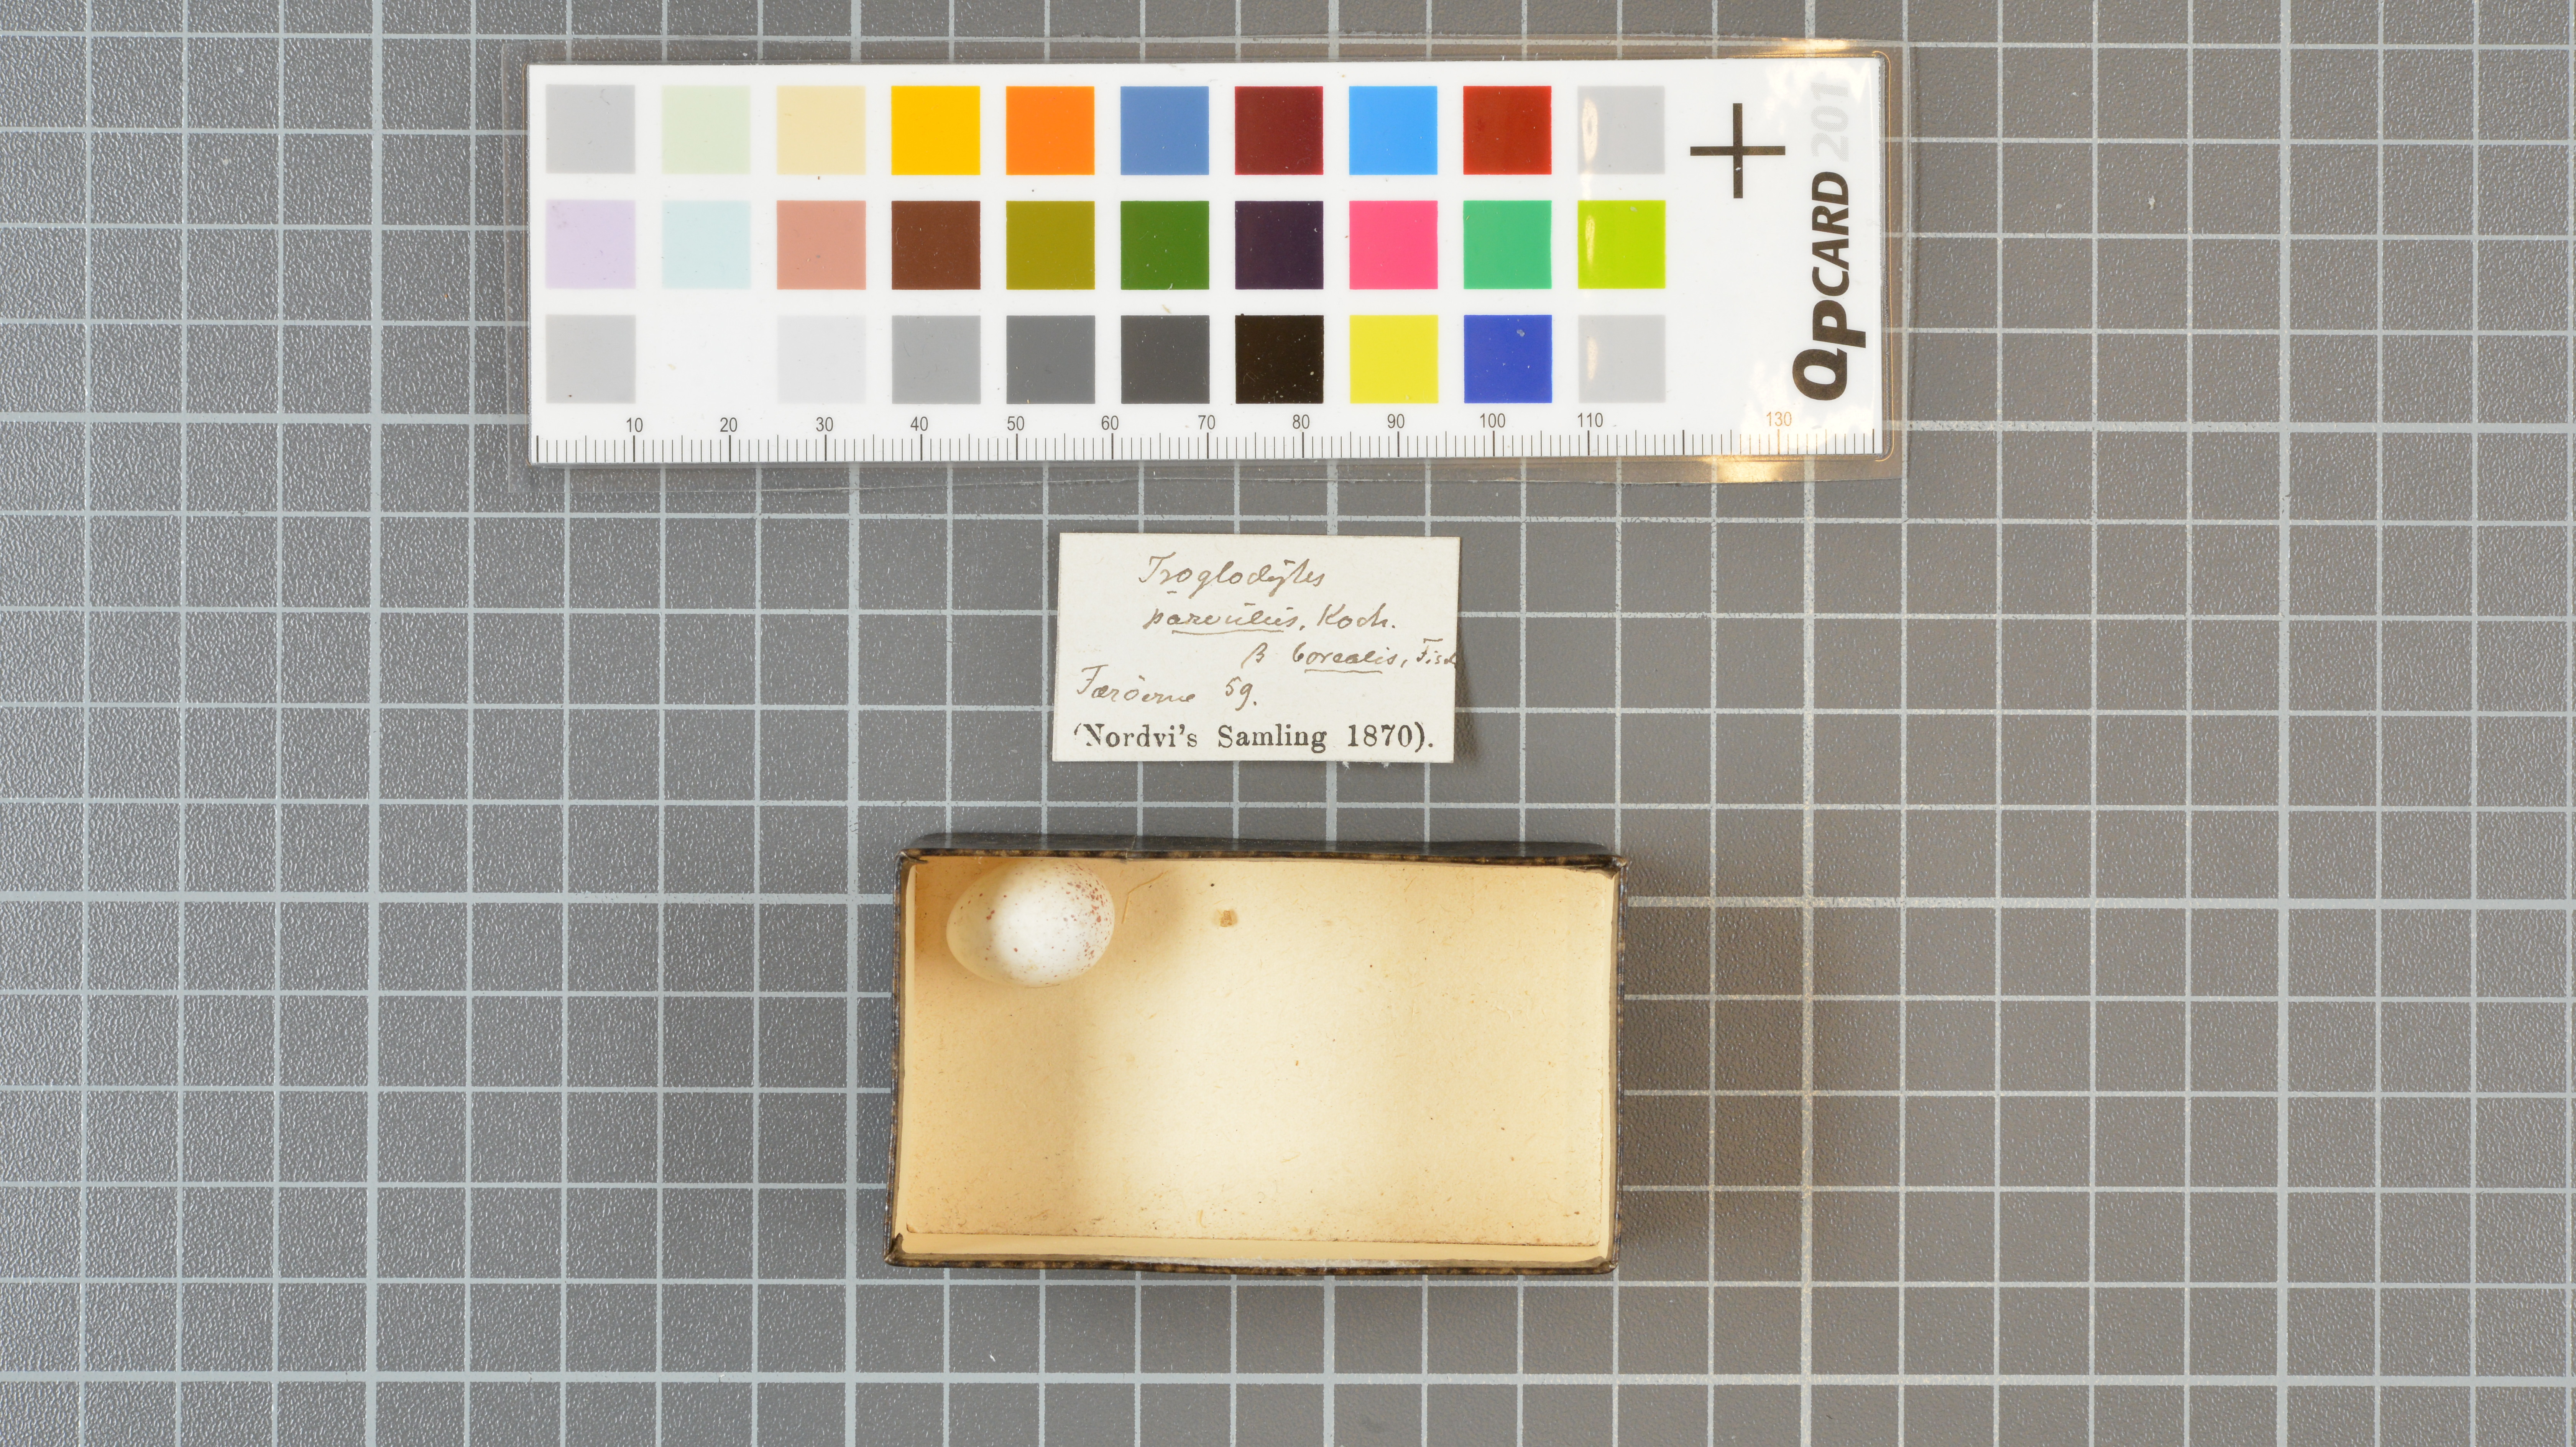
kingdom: Animalia
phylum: Chordata
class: Aves
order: Passeriformes
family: Troglodytidae
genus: Troglodytes
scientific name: Troglodytes troglodytes
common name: Eurasian wren
